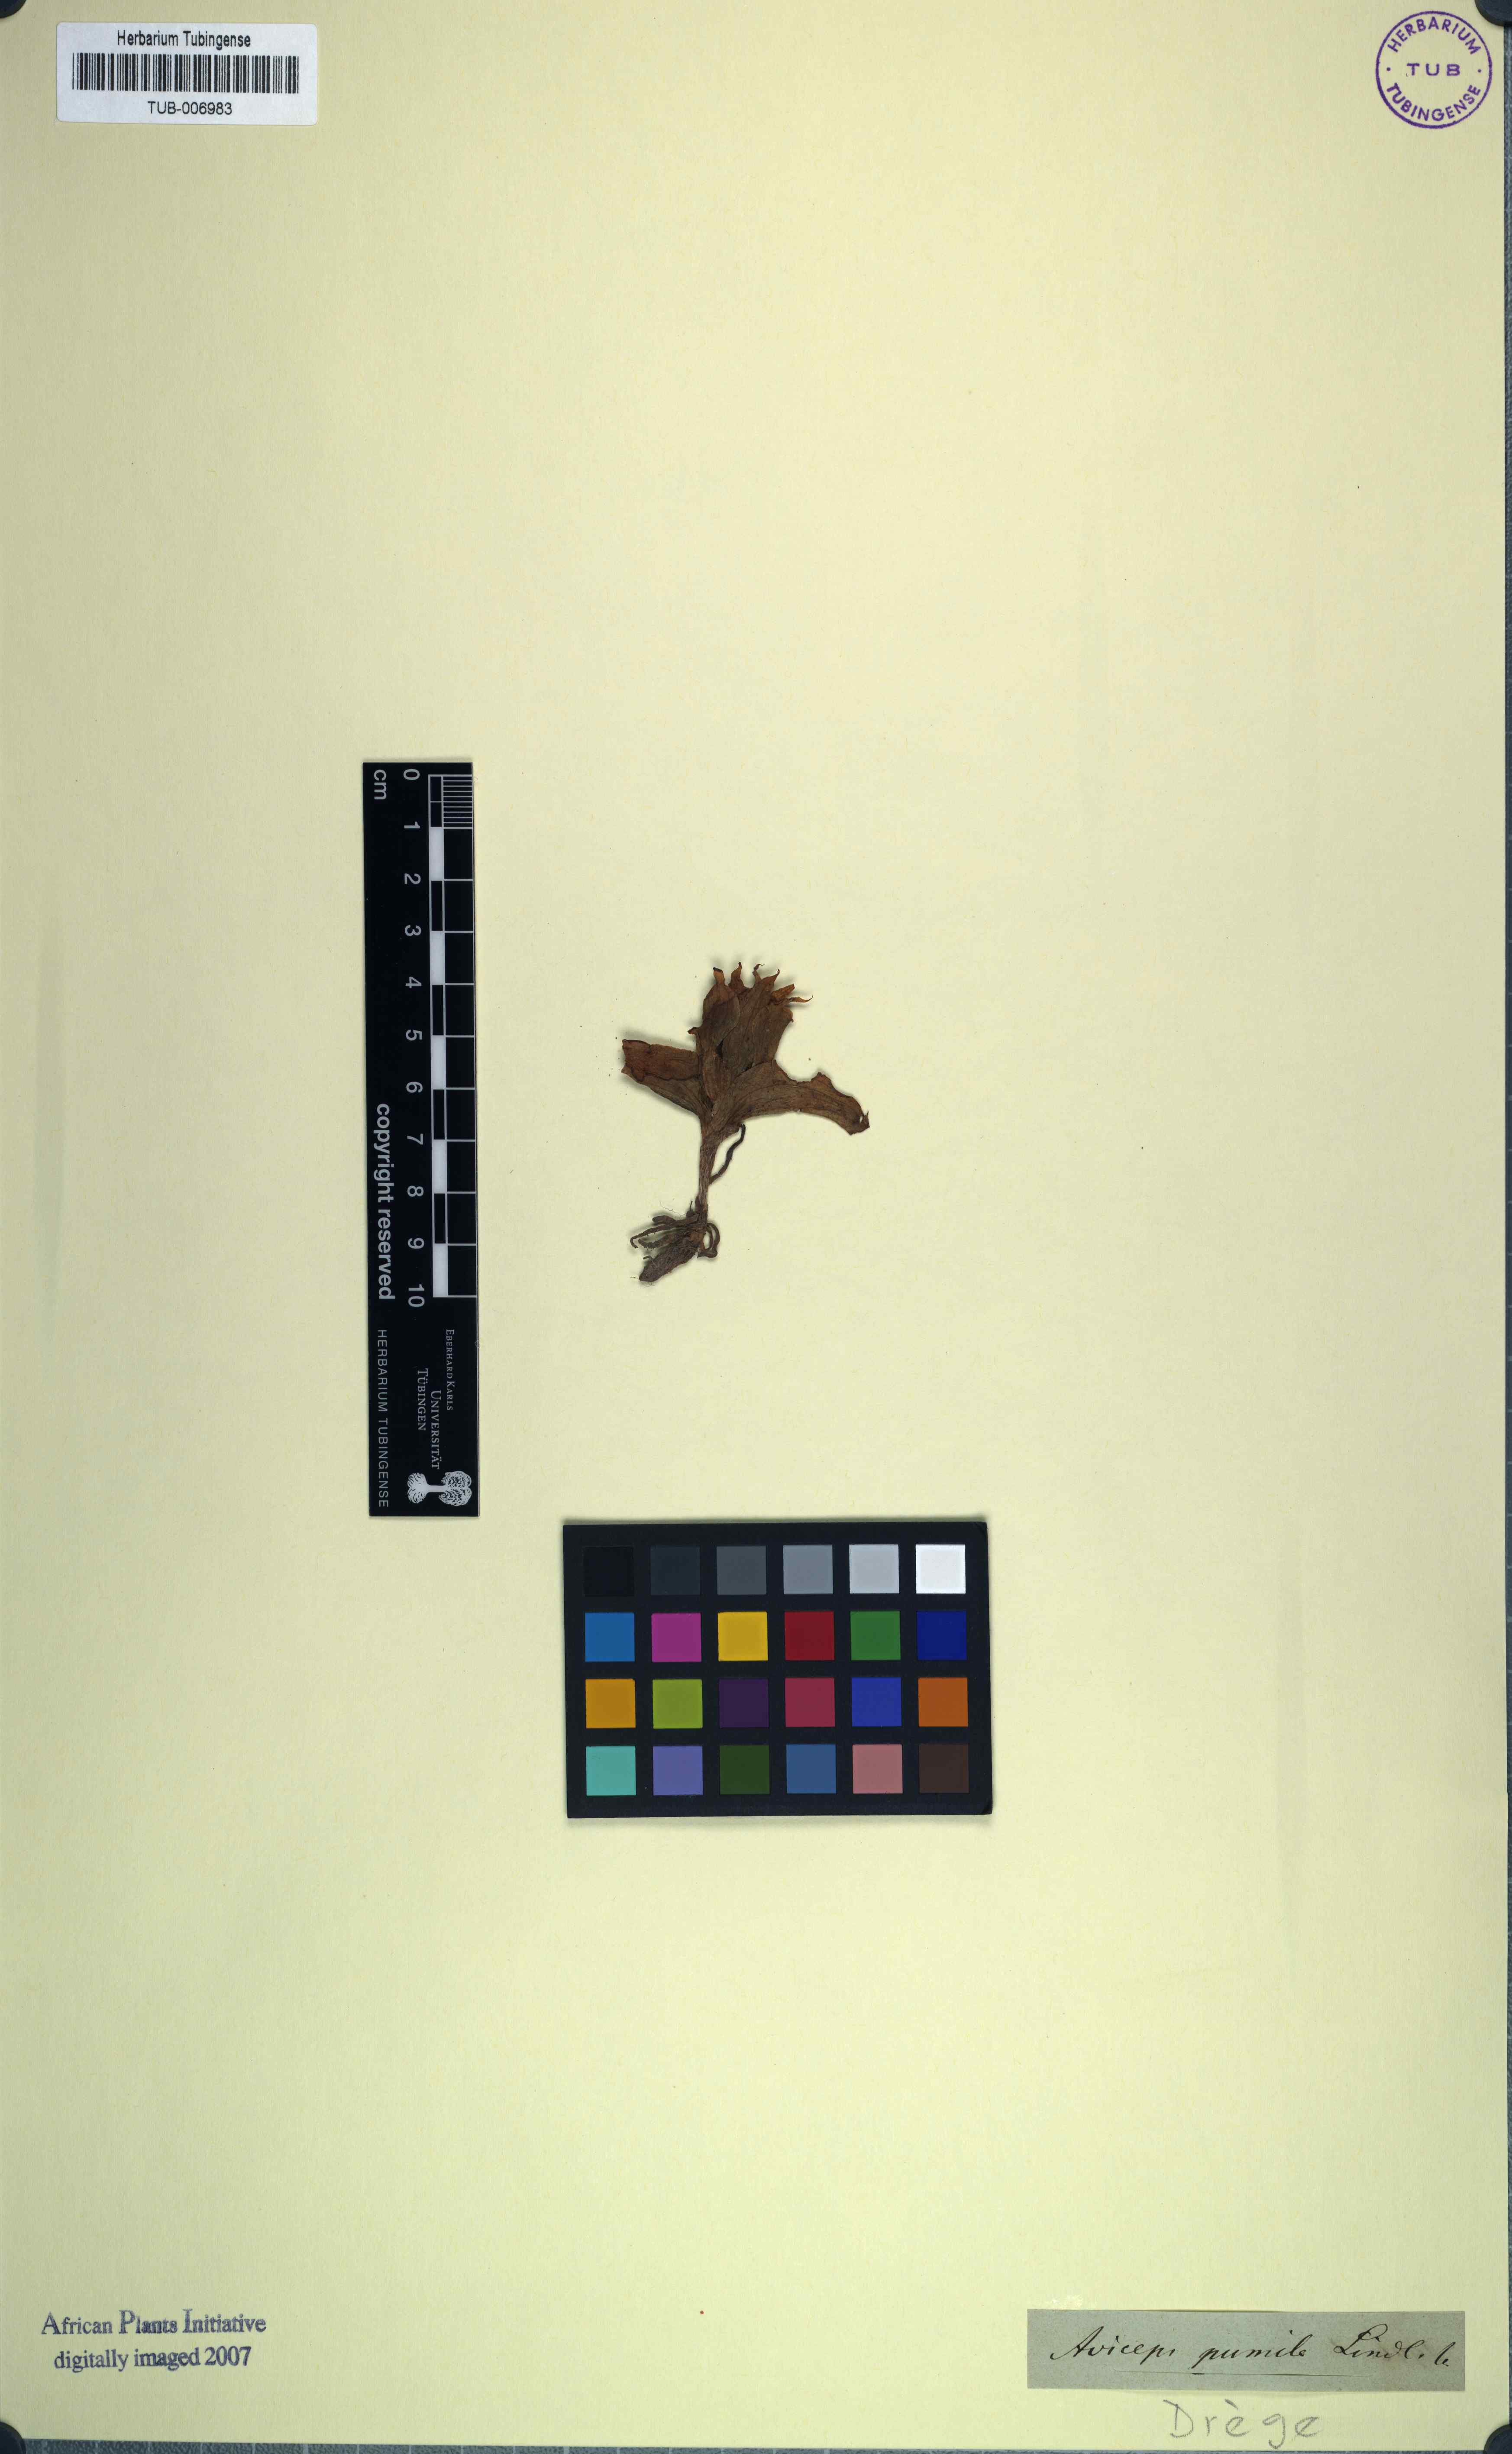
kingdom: Plantae
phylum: Tracheophyta
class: Liliopsida
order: Asparagales
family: Orchidaceae
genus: Satyrium
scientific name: Satyrium pumilum
